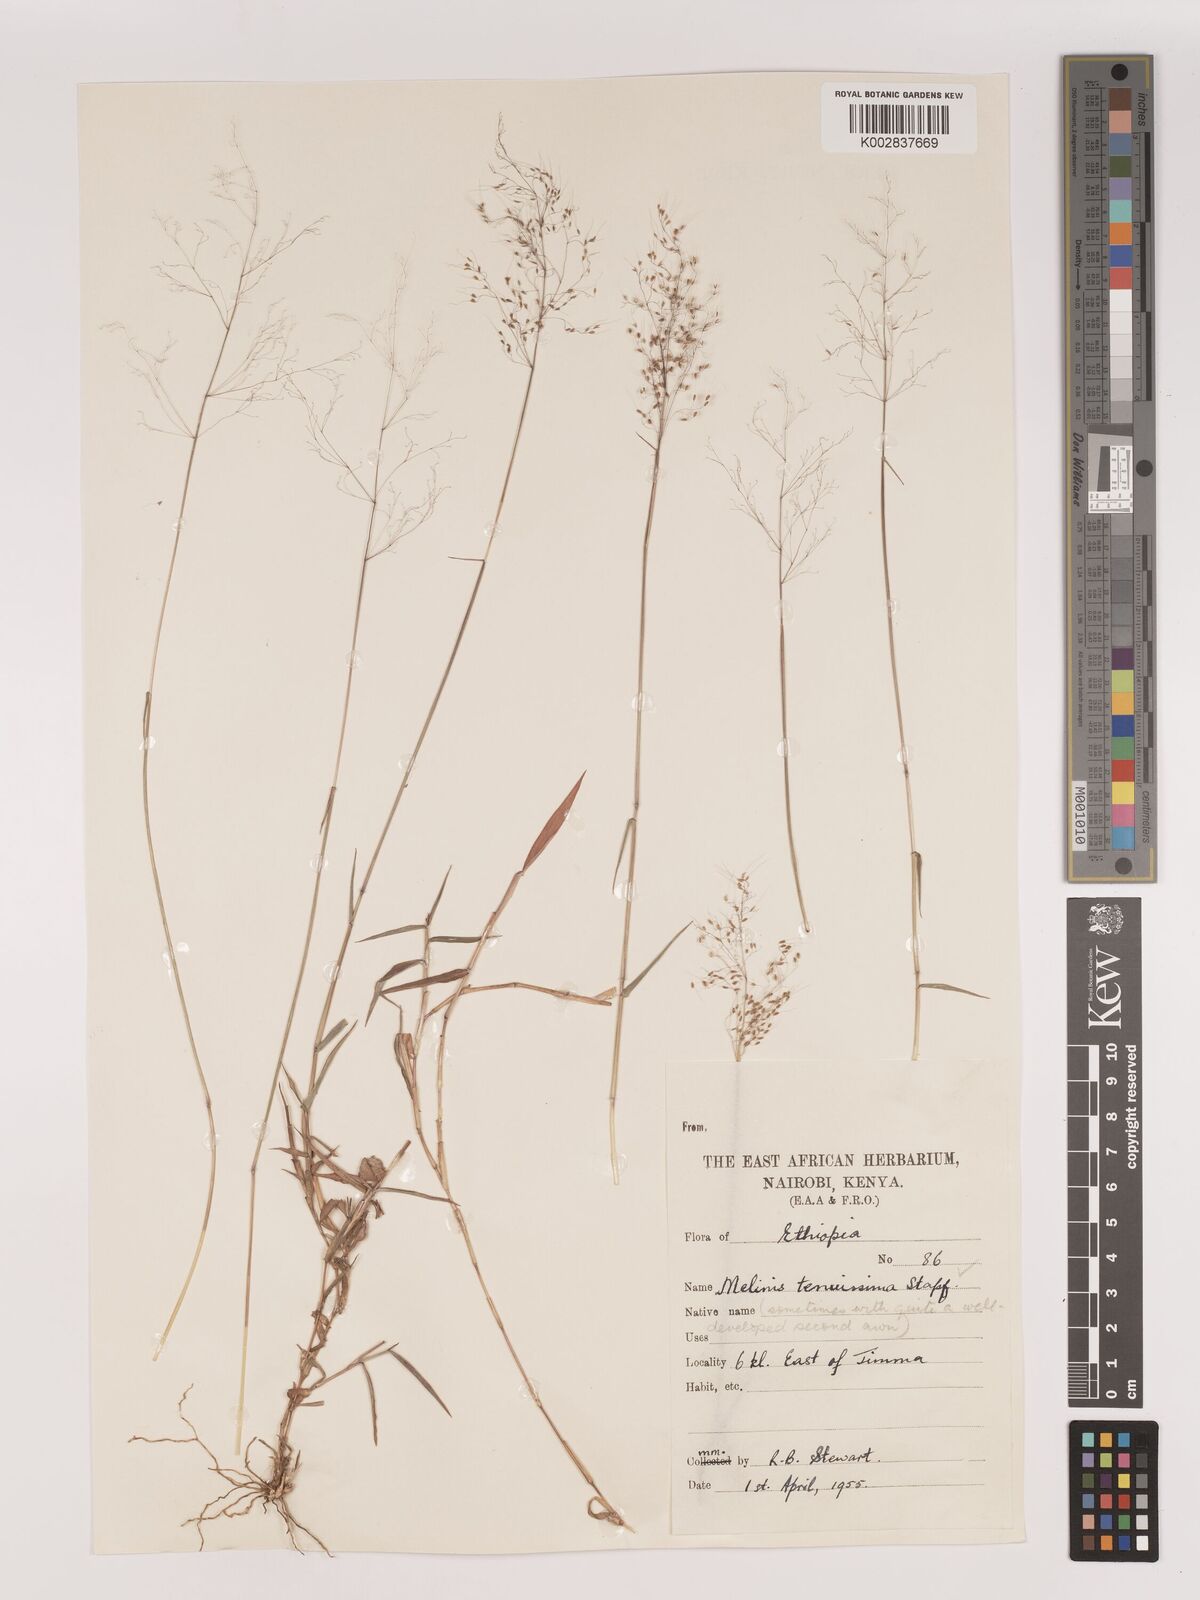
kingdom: Plantae
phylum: Tracheophyta
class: Liliopsida
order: Poales
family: Poaceae
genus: Melinis
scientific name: Melinis tenuissima
